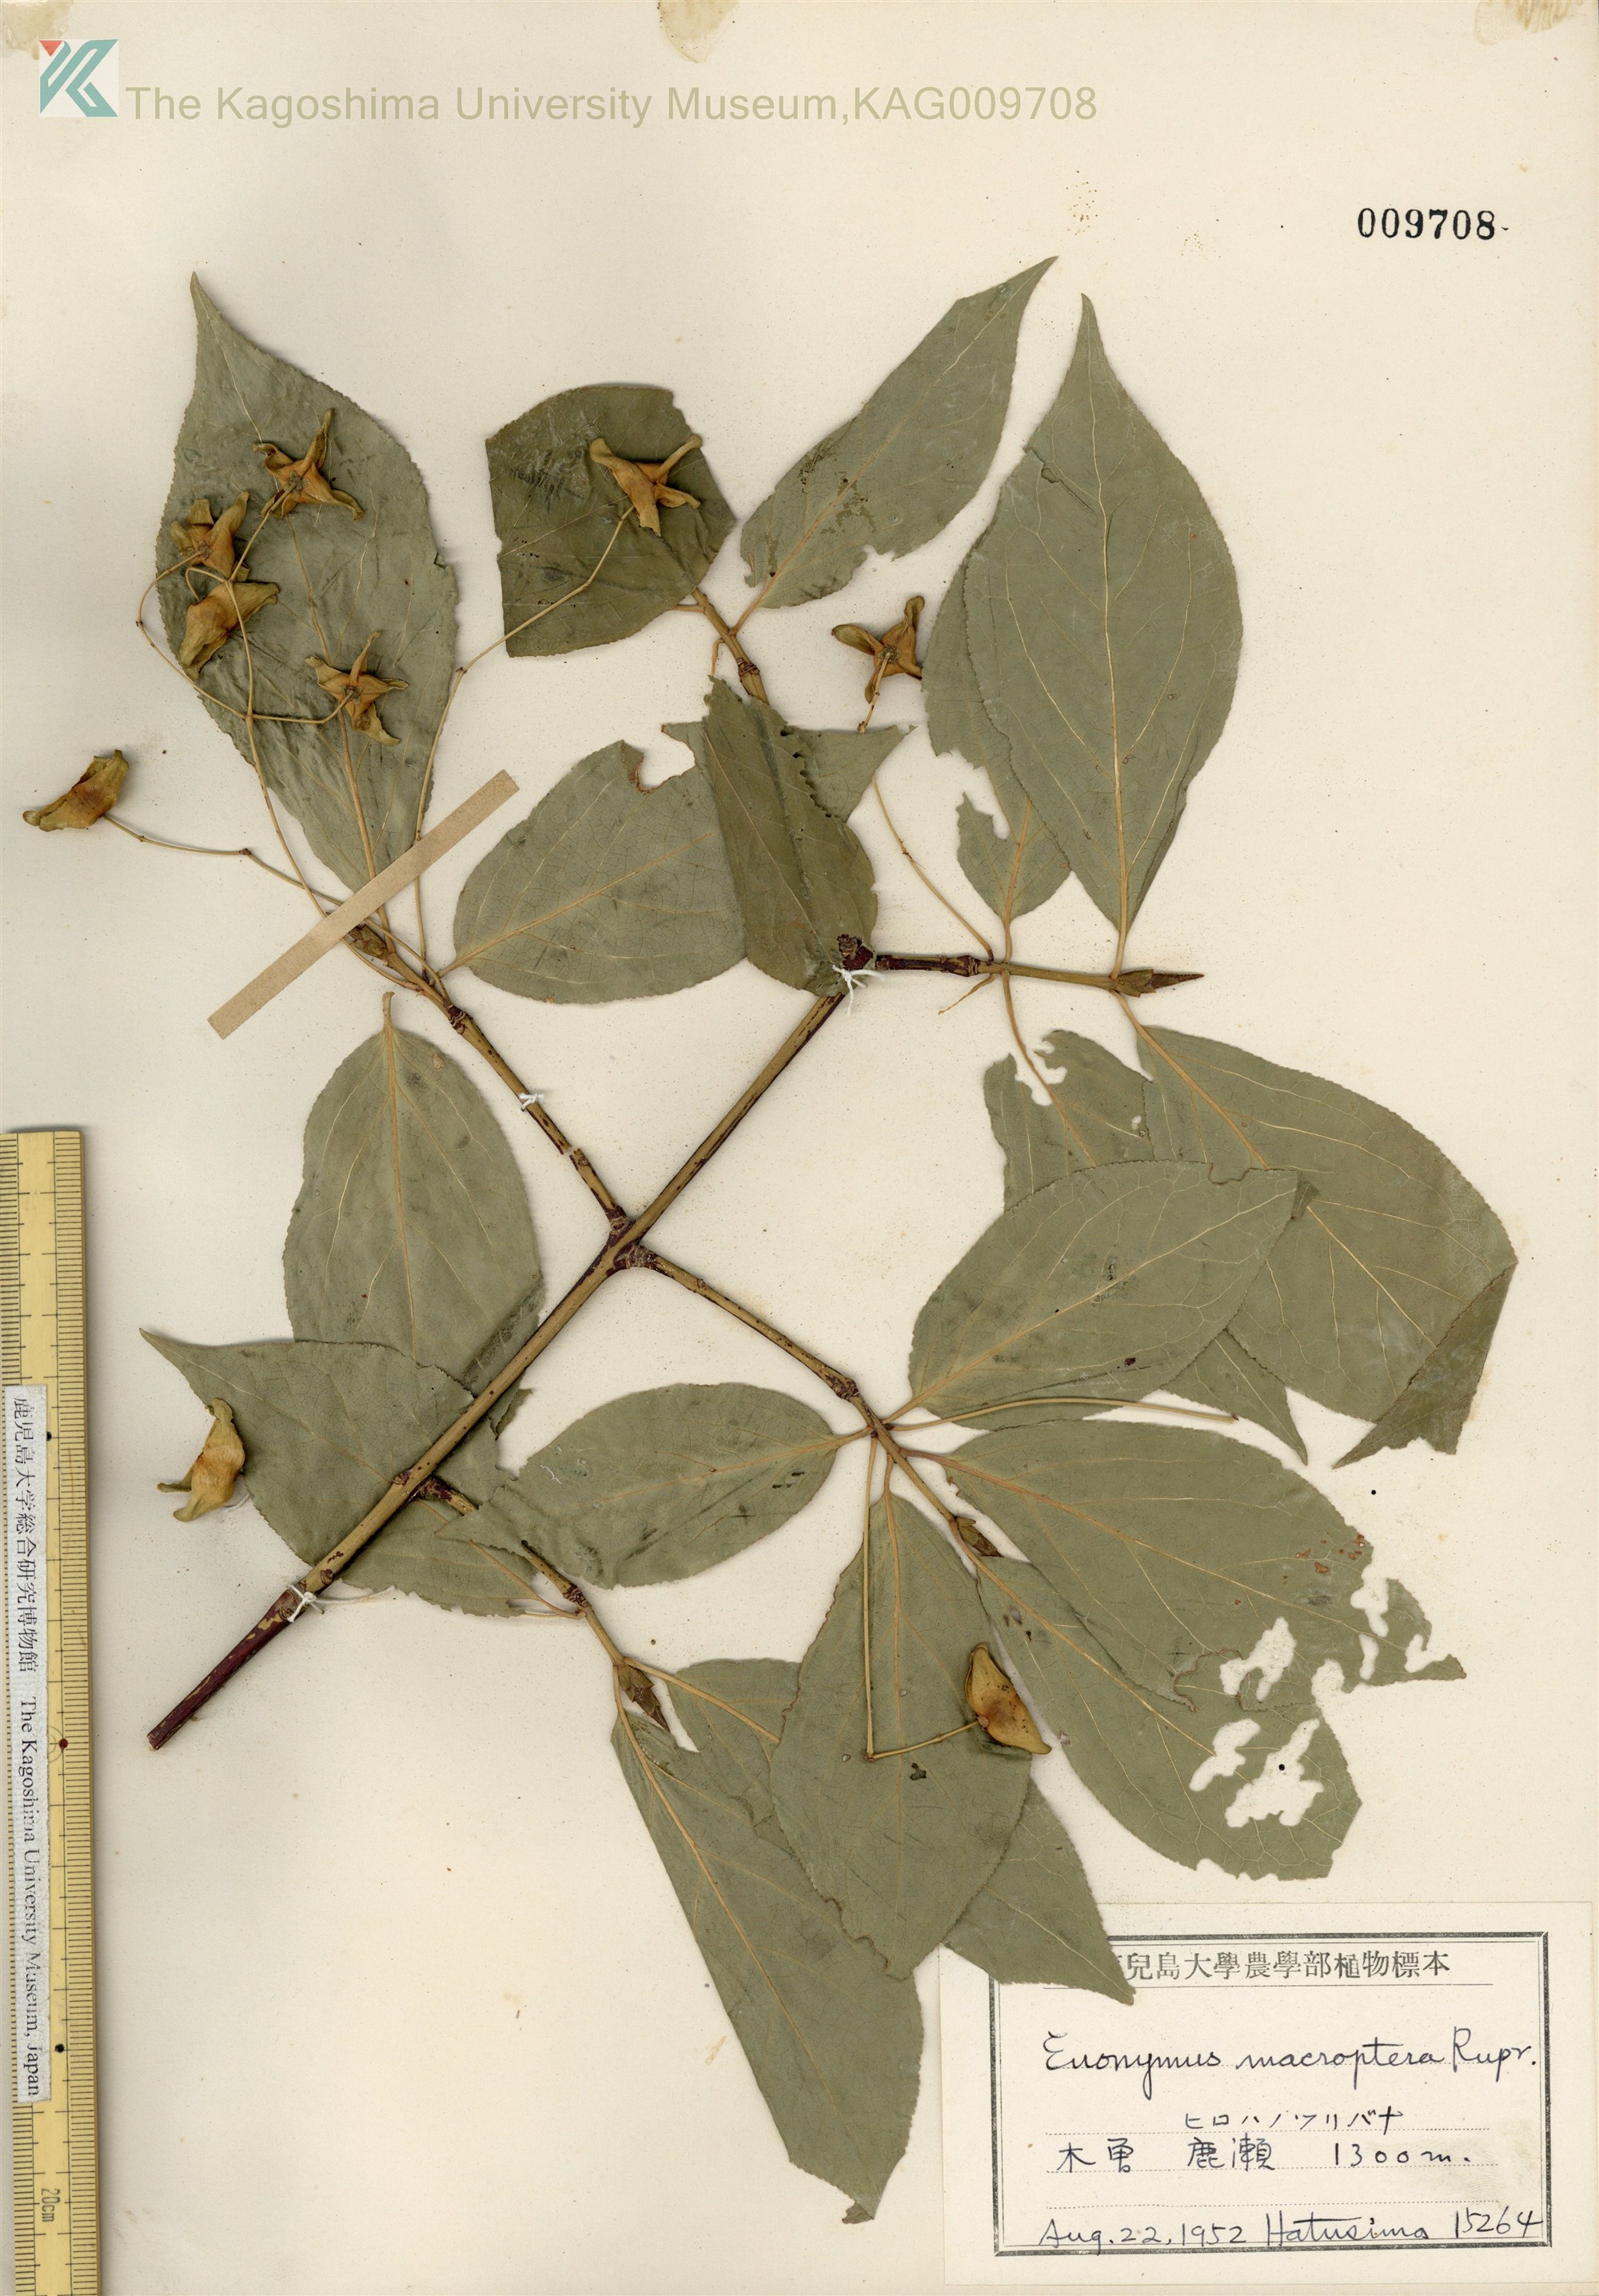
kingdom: Plantae
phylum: Tracheophyta
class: Magnoliopsida
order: Celastrales
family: Celastraceae
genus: Euonymus
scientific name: Euonymus macropterus
